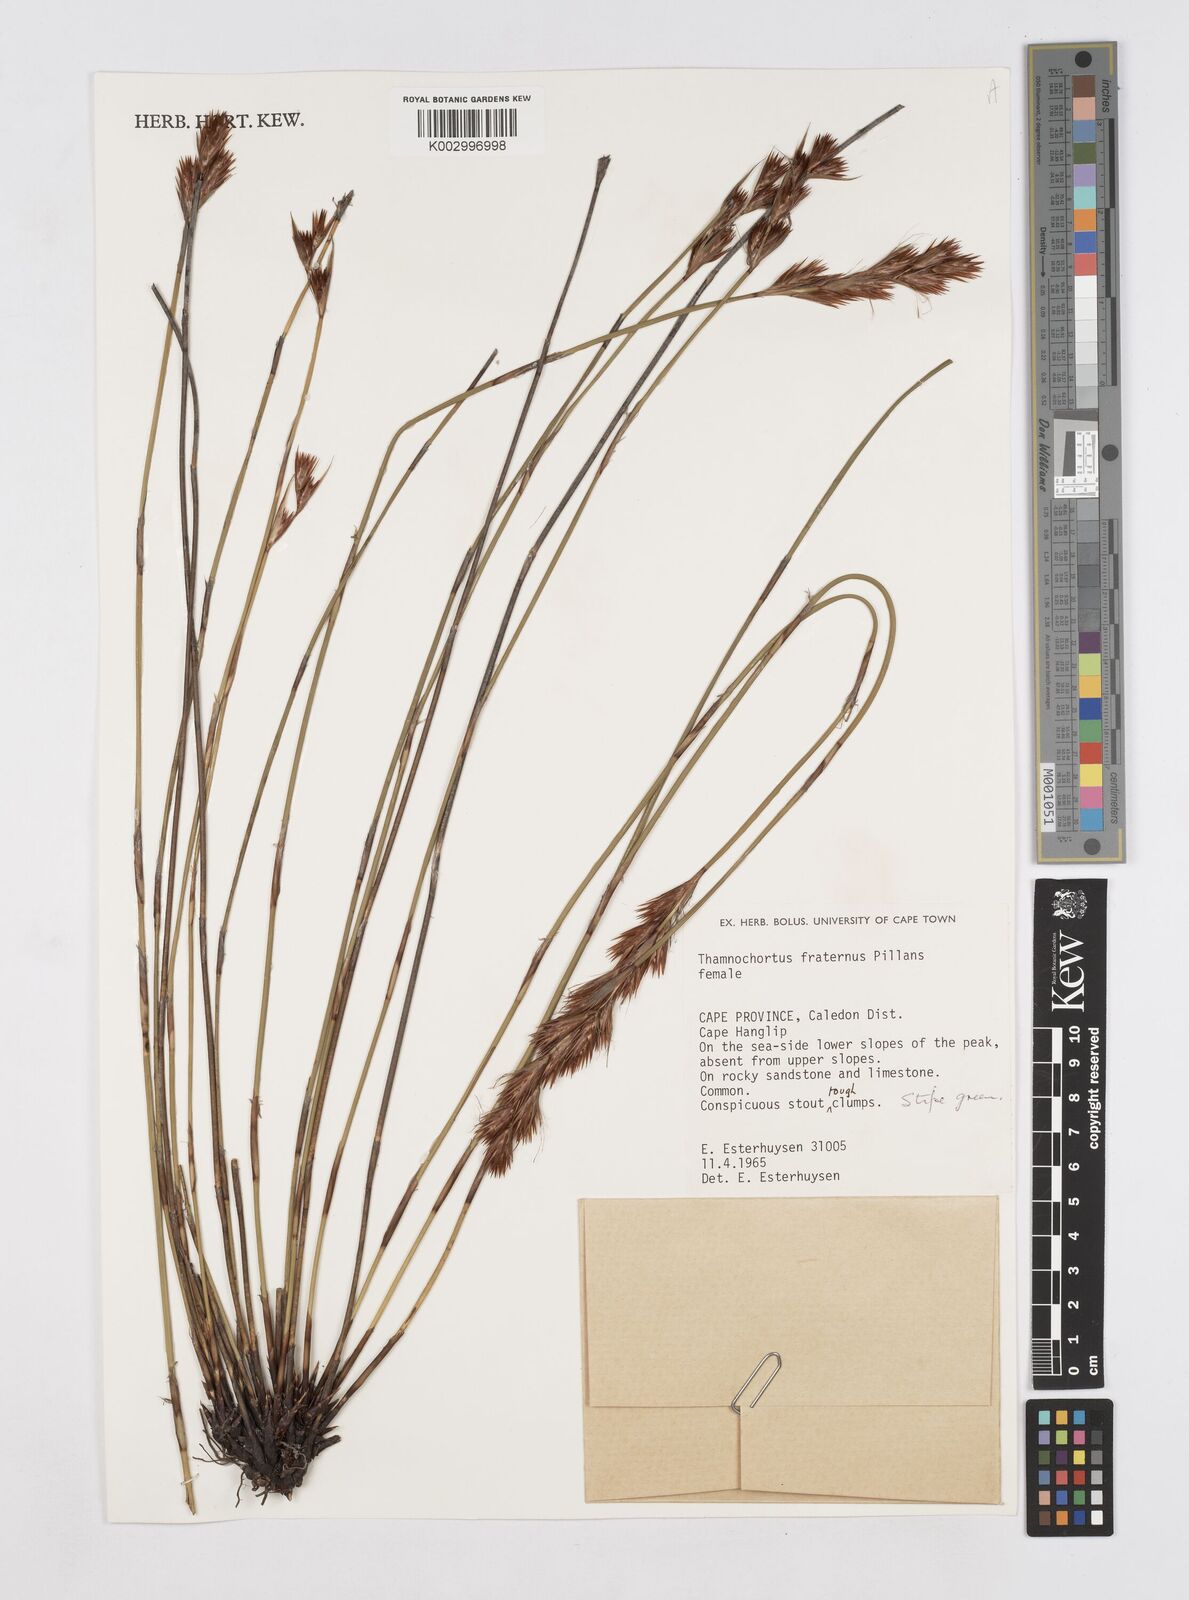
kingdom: Plantae
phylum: Tracheophyta
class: Liliopsida
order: Poales
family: Restionaceae
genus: Thamnochortus
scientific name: Thamnochortus fraternus
